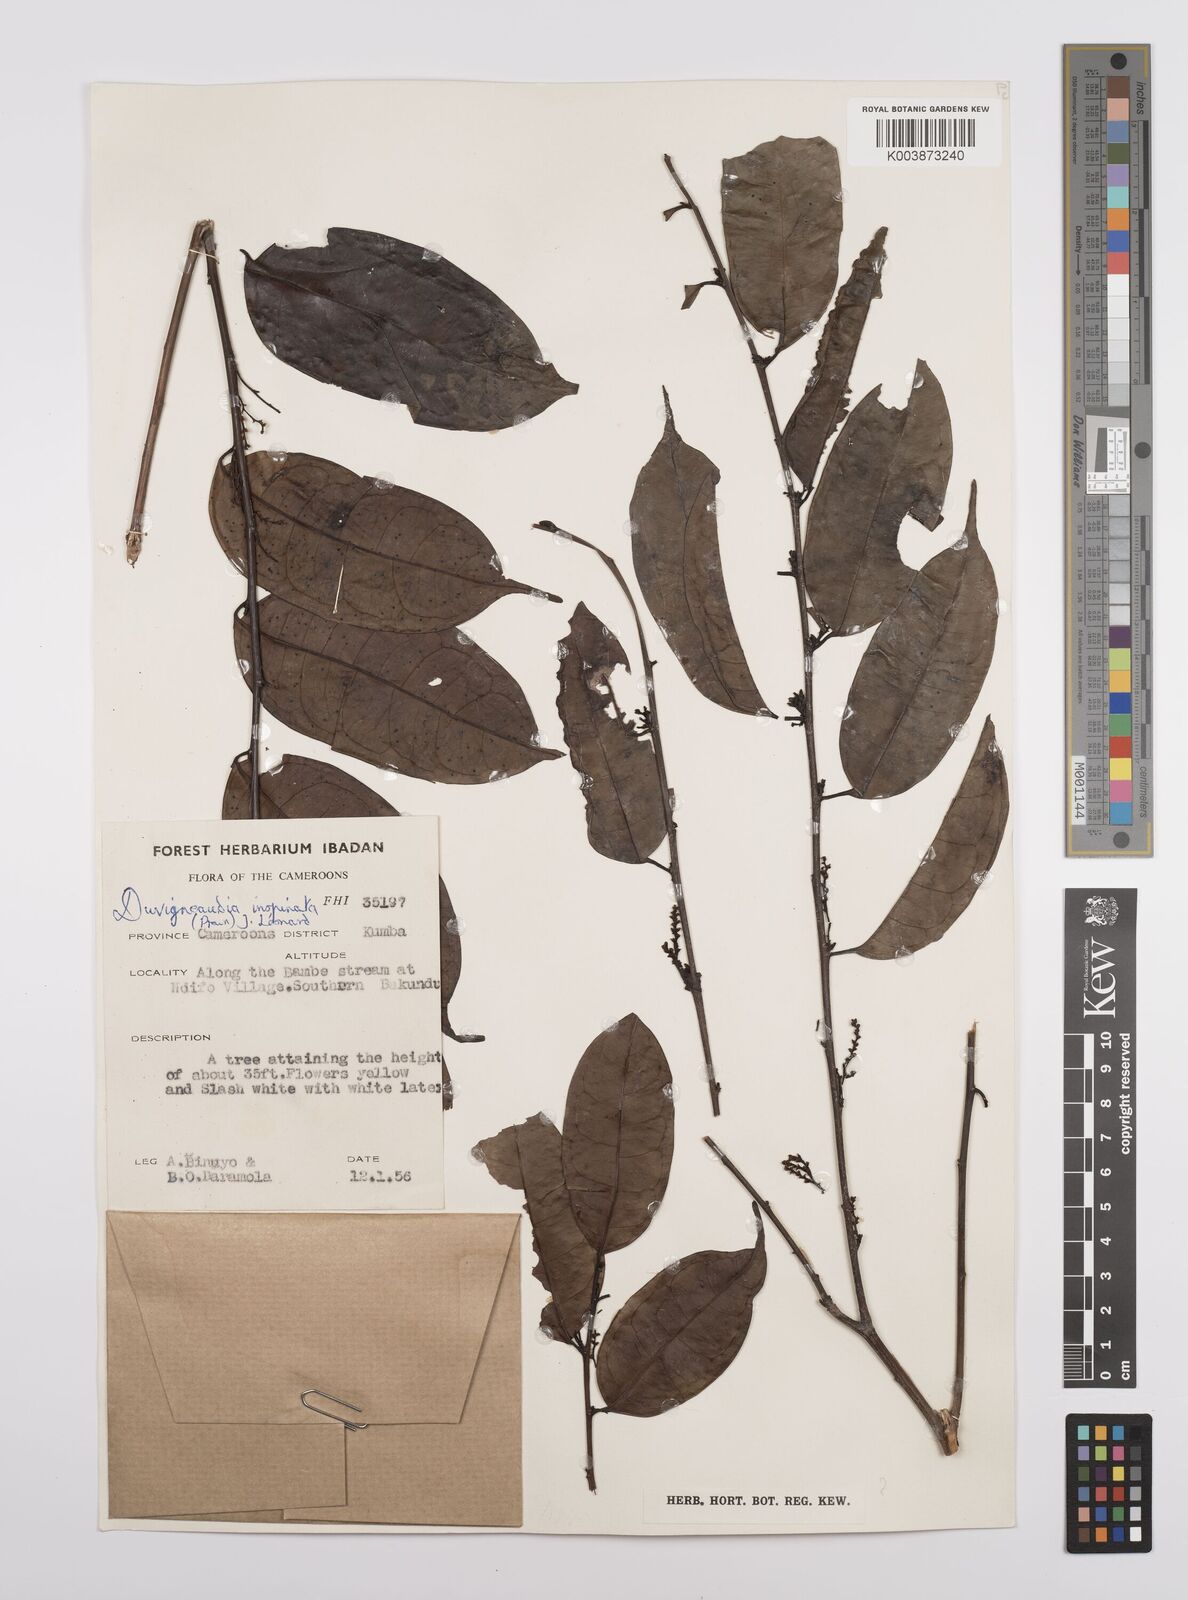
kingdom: Plantae
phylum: Tracheophyta
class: Magnoliopsida
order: Malpighiales
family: Euphorbiaceae
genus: Gymnanthes
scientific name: Gymnanthes inopinata
